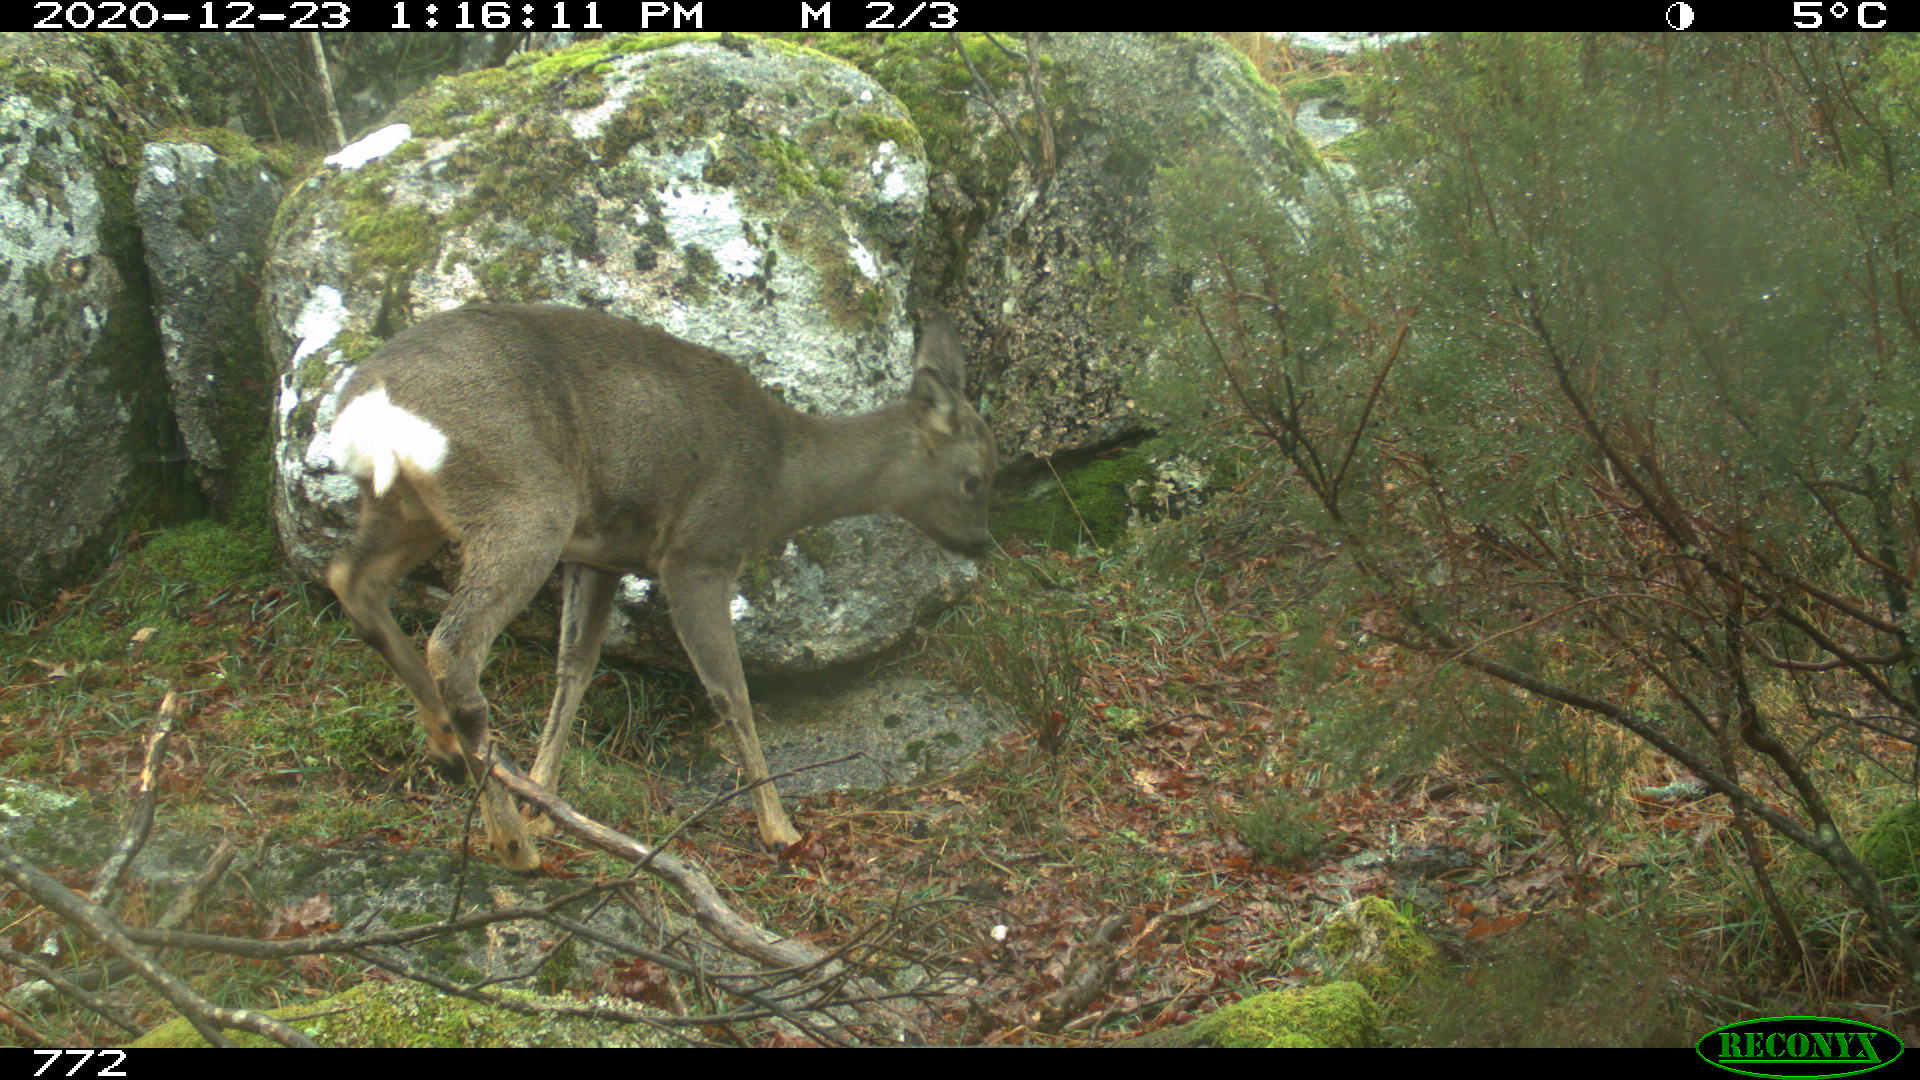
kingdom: Animalia
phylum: Chordata
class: Mammalia
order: Artiodactyla
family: Cervidae
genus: Capreolus
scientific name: Capreolus capreolus
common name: Western roe deer
